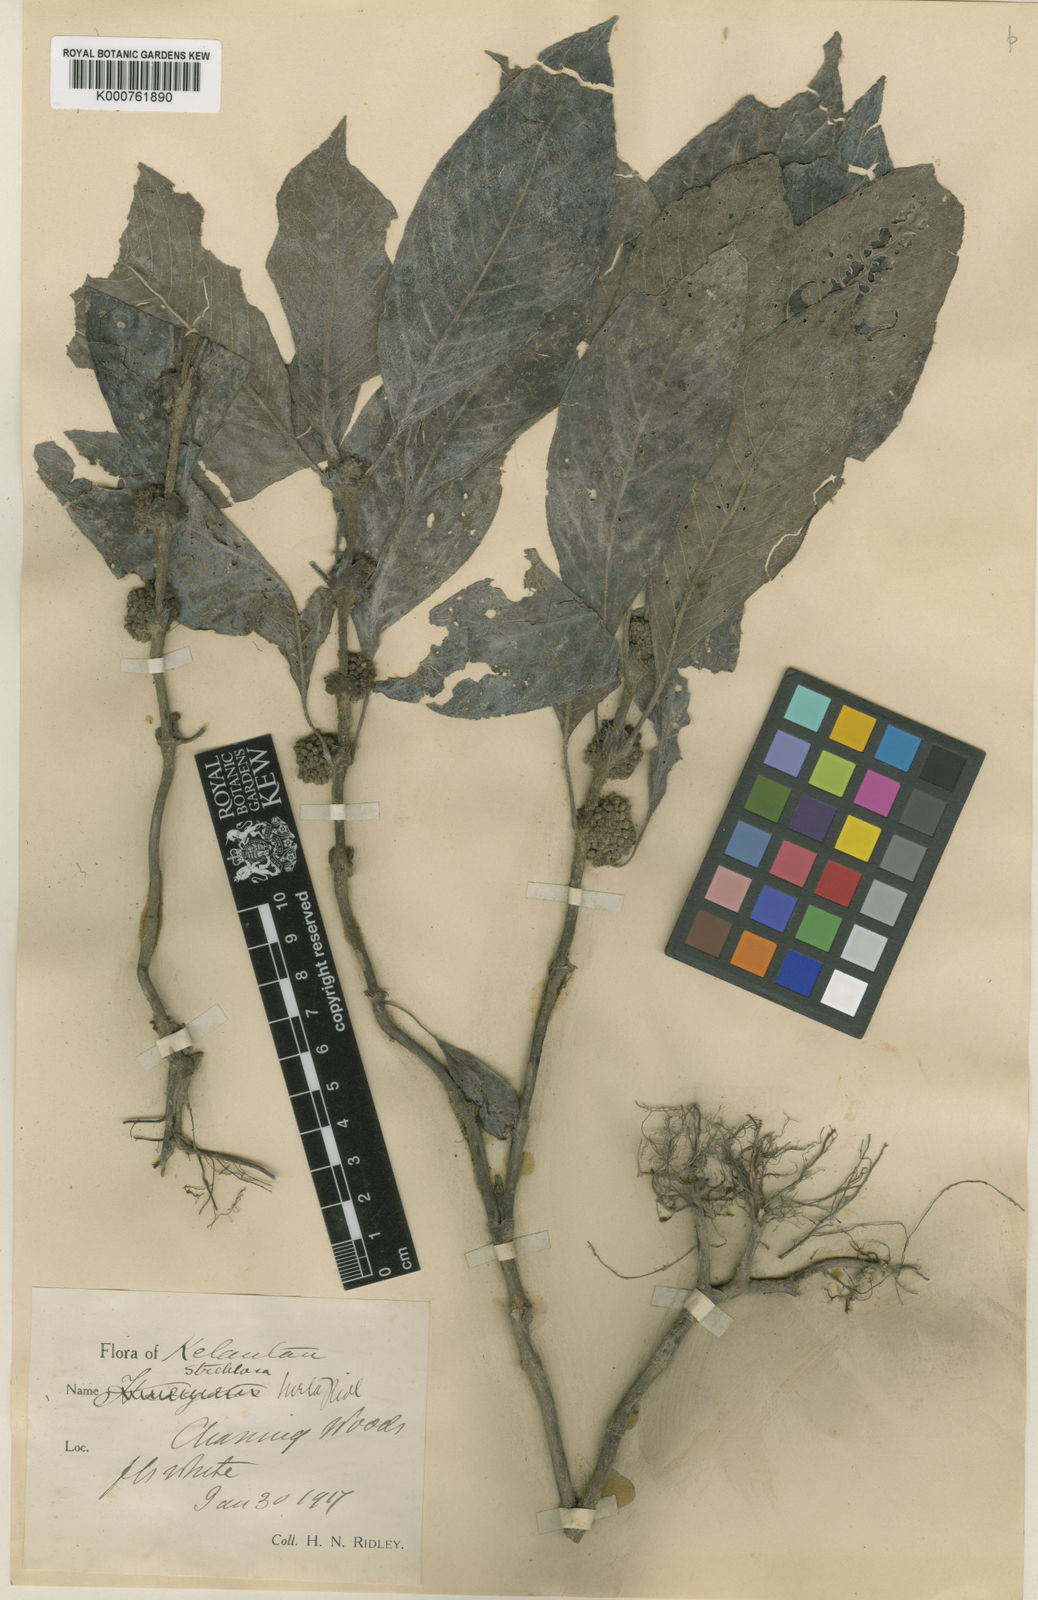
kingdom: Plantae
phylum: Tracheophyta
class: Magnoliopsida
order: Gentianales
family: Rubiaceae
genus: Streblosa
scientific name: Streblosa polyantha
